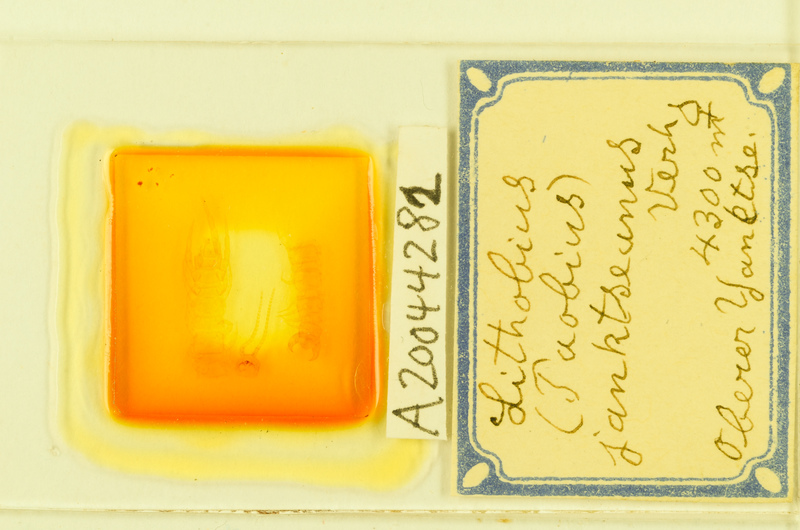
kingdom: Animalia
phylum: Arthropoda
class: Chilopoda
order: Lithobiomorpha
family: Lithobiidae
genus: Lithobius
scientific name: Lithobius
